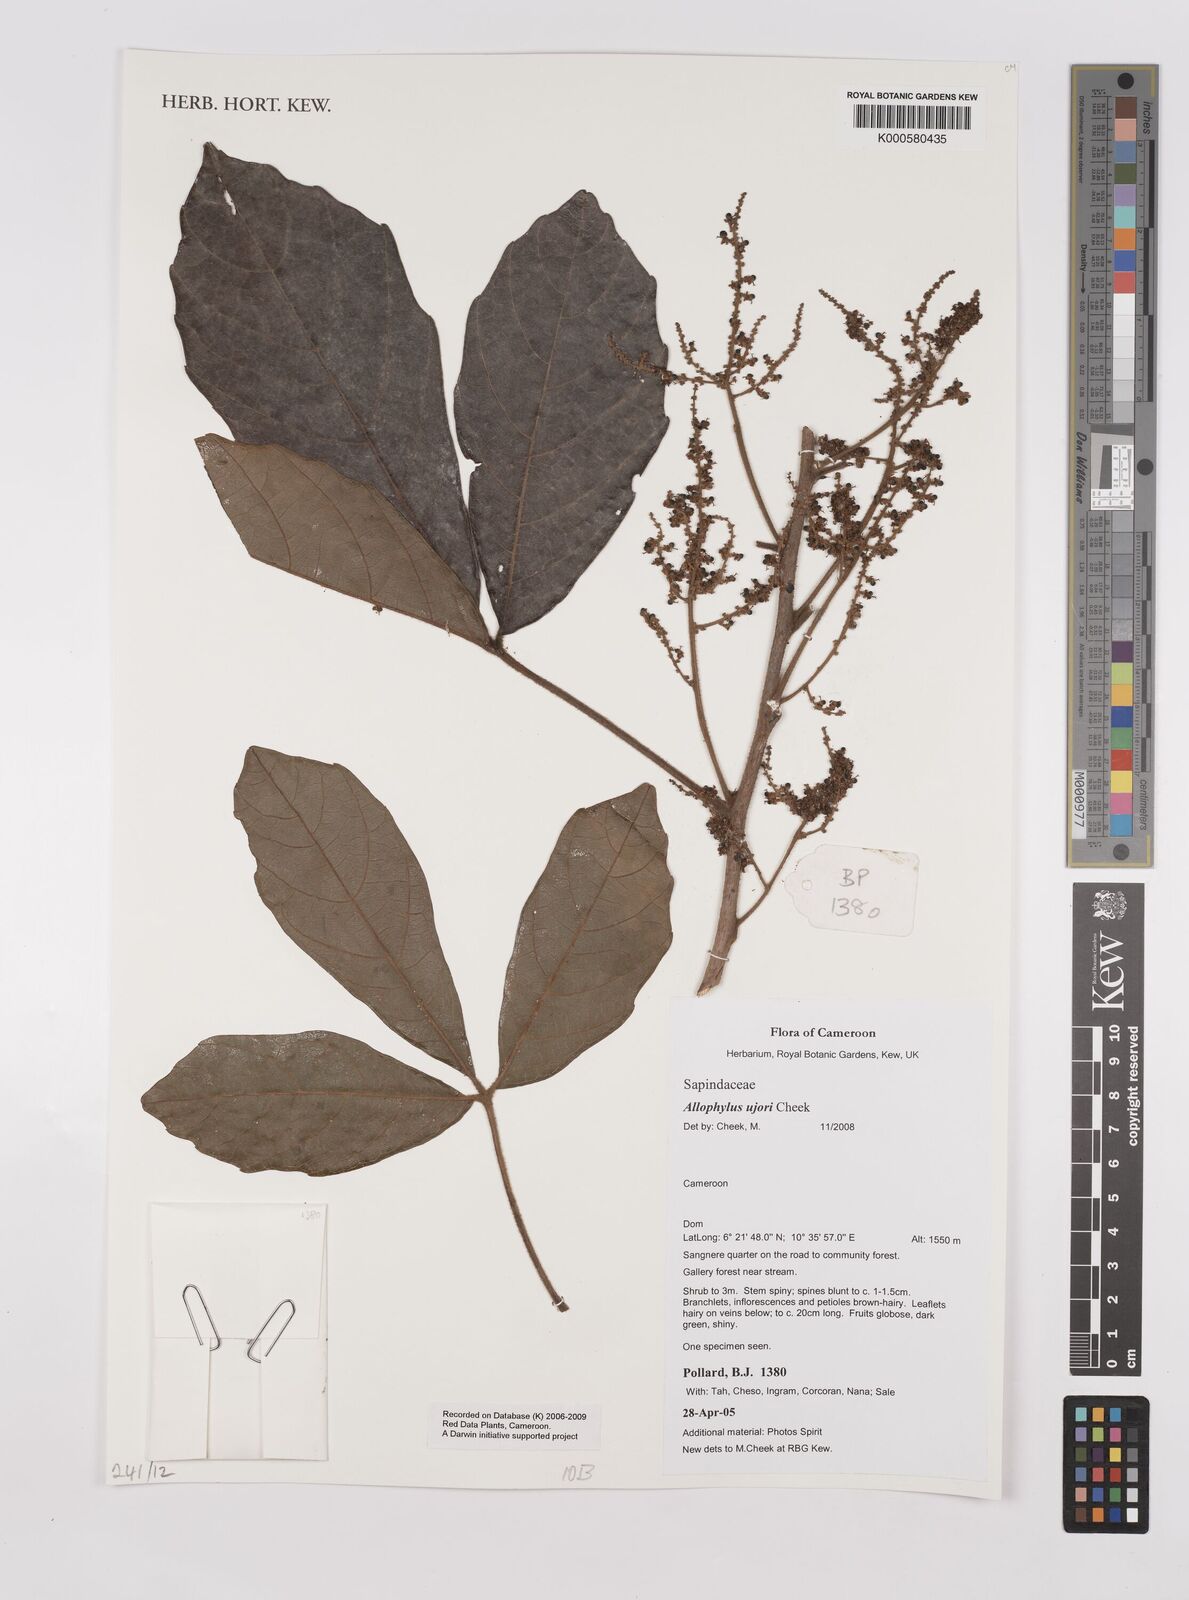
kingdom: Plantae
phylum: Tracheophyta
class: Magnoliopsida
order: Sapindales
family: Sapindaceae
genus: Allophylus
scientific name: Allophylus ujori
